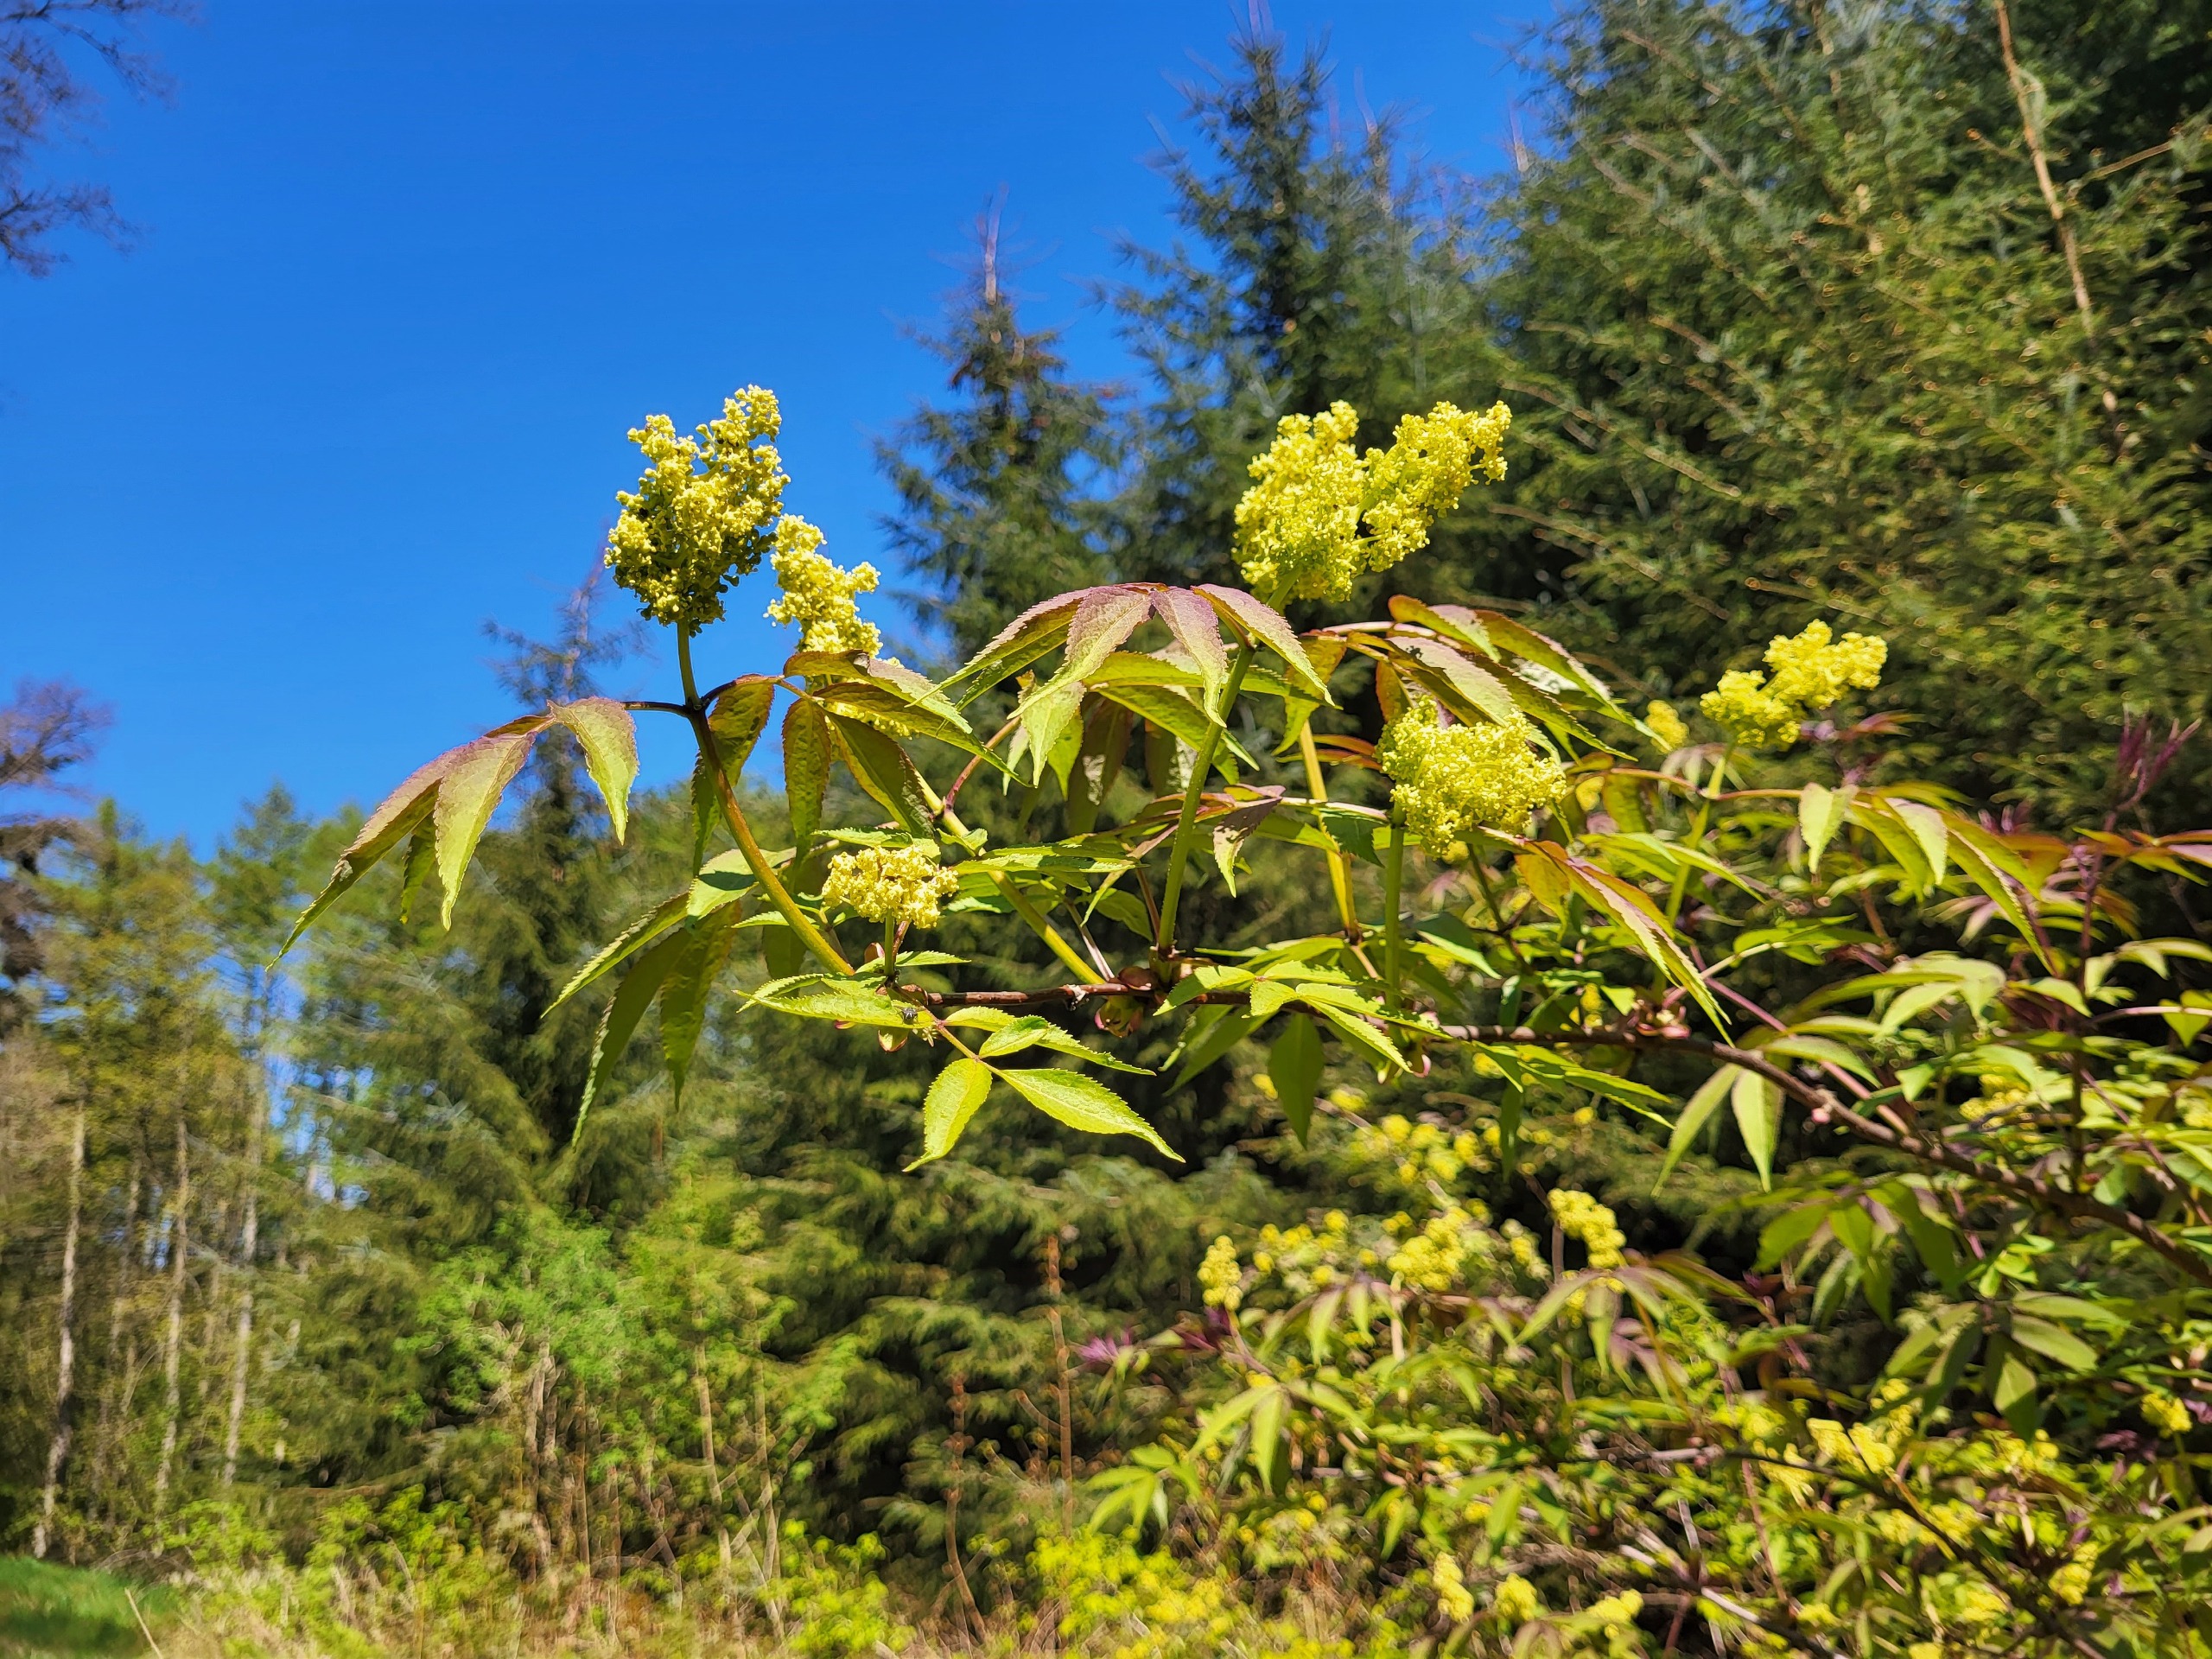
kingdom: Plantae
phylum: Tracheophyta
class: Magnoliopsida
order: Dipsacales
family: Viburnaceae
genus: Sambucus
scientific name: Sambucus racemosa
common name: Drue-hyld
